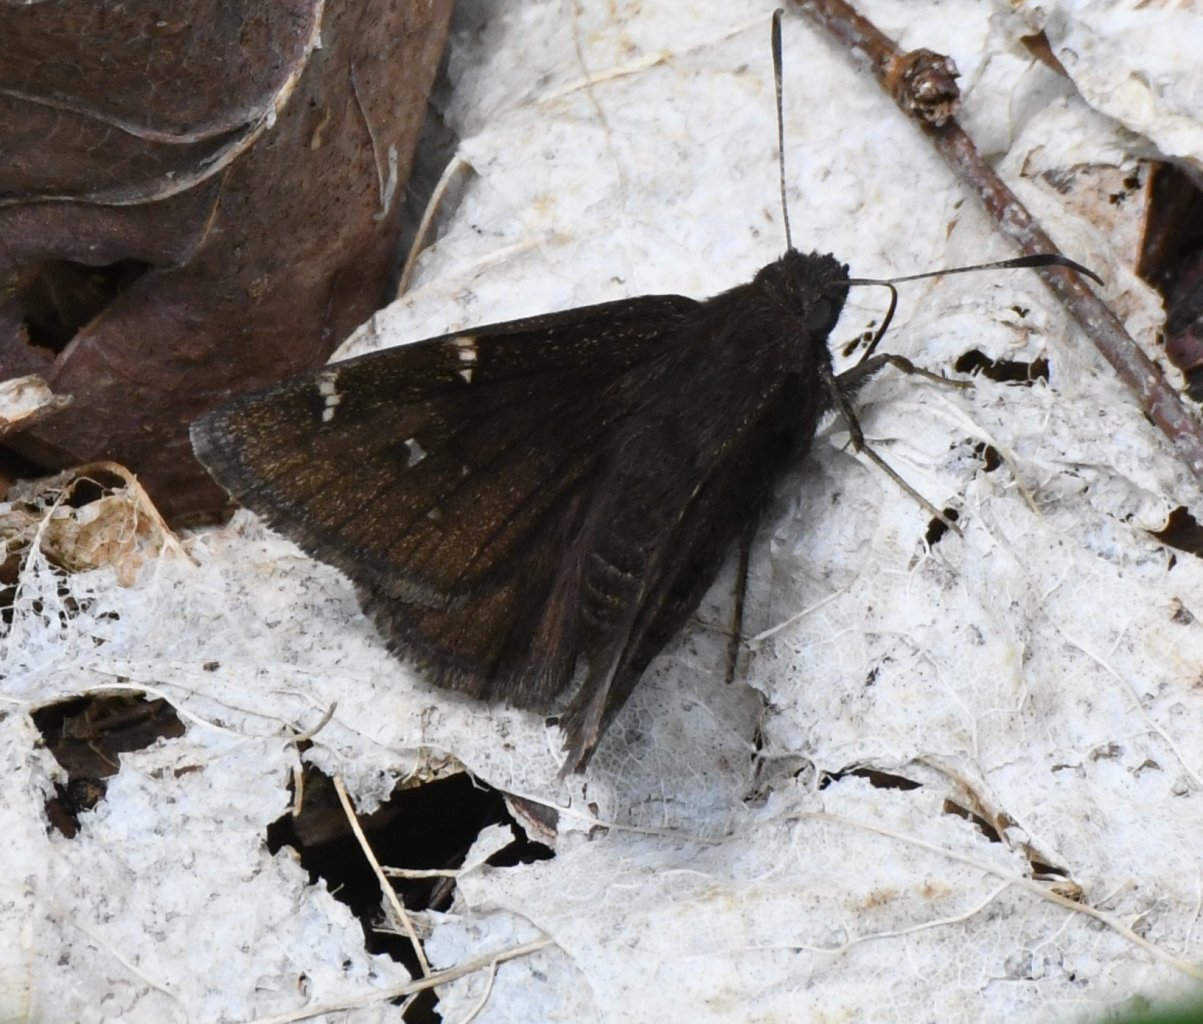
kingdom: Animalia
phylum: Arthropoda
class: Insecta
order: Lepidoptera
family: Hesperiidae
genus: Autochton
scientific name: Autochton
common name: Northern Cloudywing
